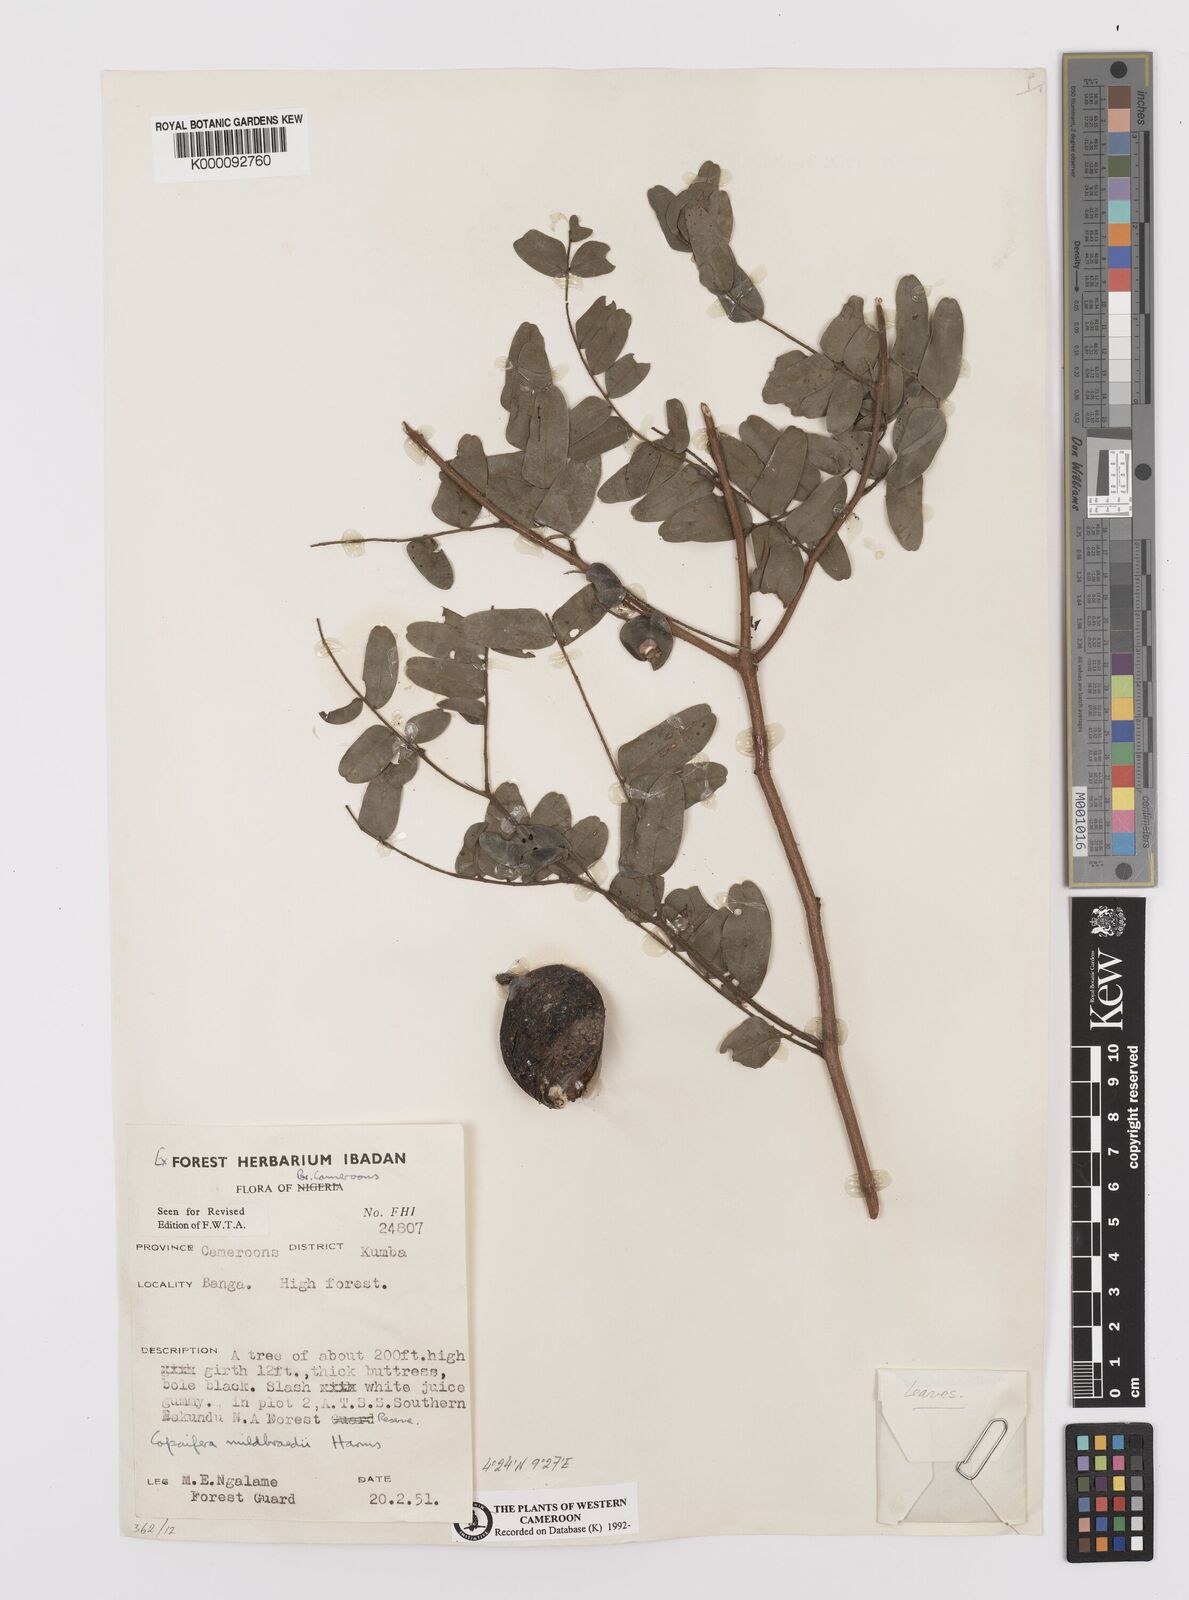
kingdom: Plantae
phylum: Tracheophyta
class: Magnoliopsida
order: Fabales
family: Fabaceae
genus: Copaifera
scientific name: Copaifera mildbraedii
